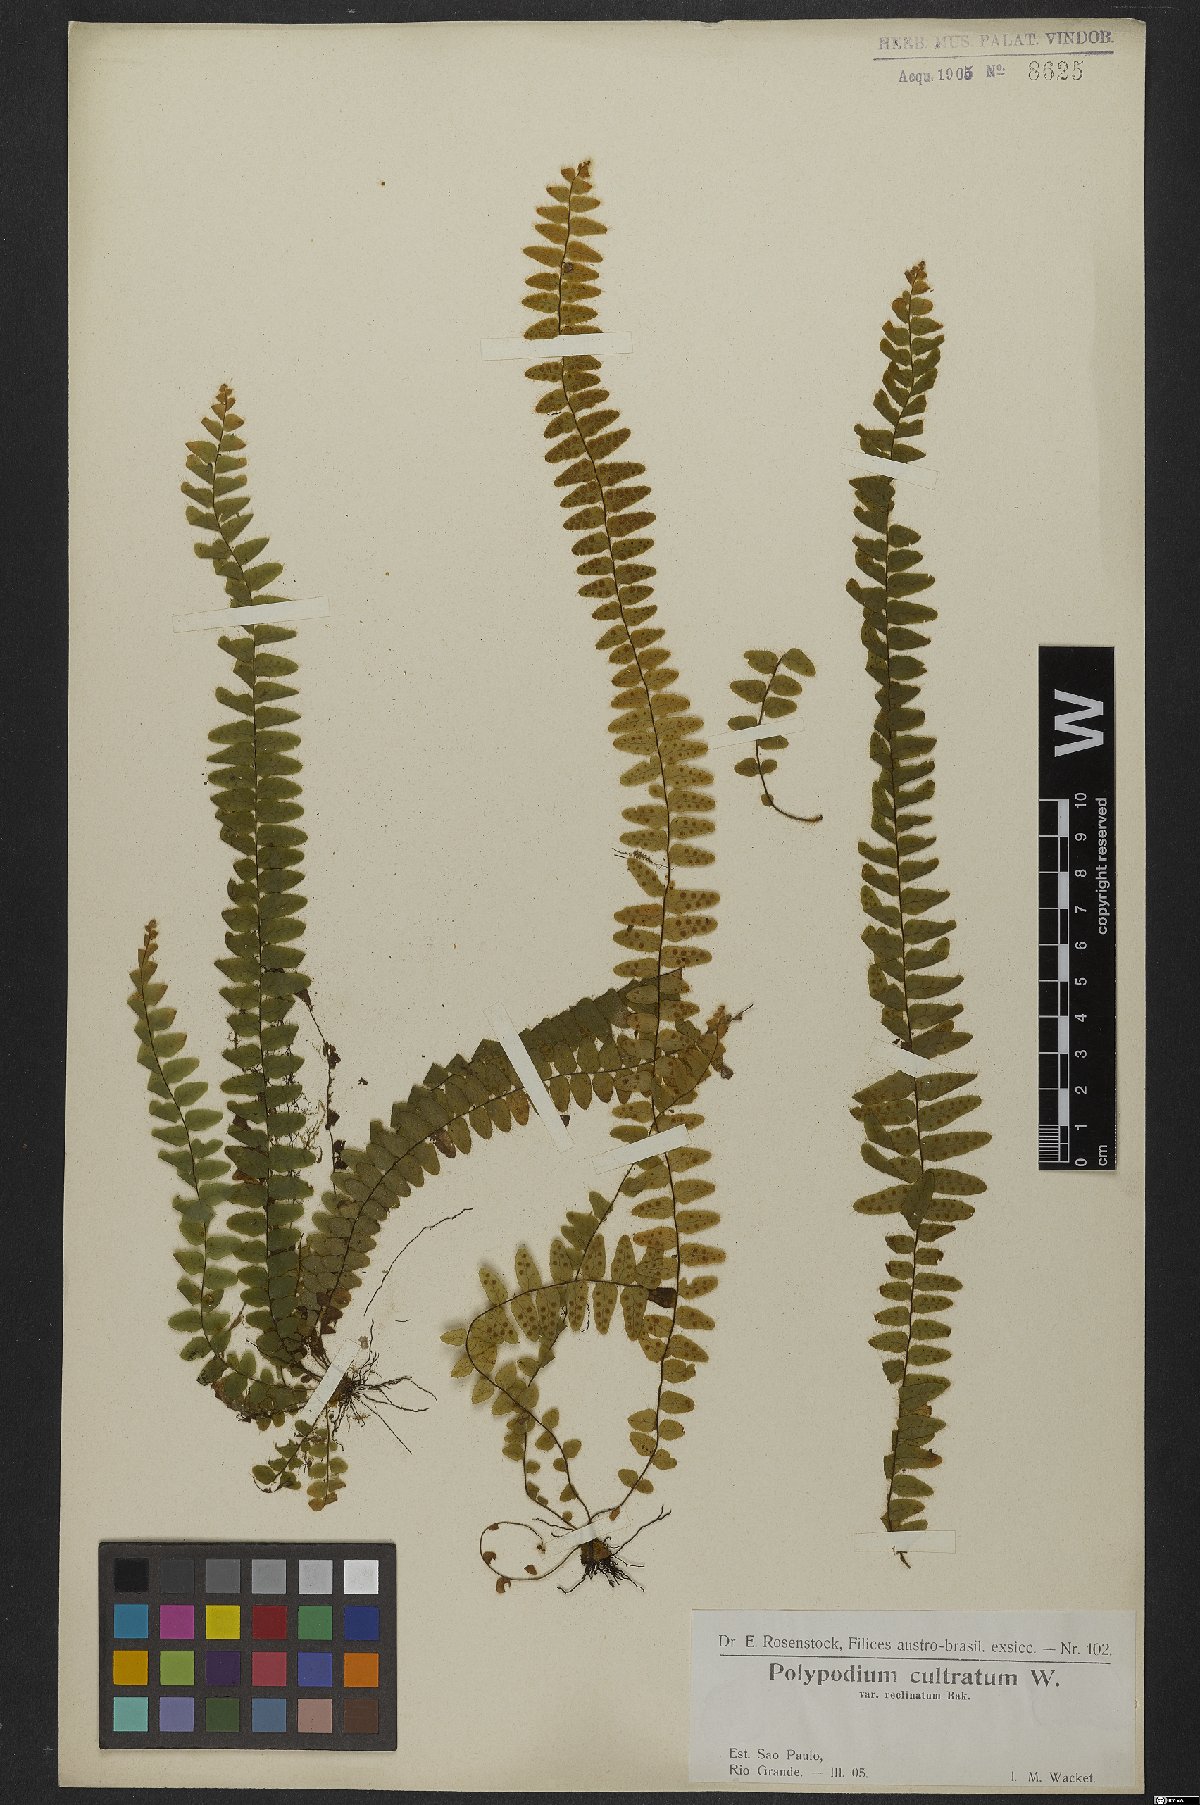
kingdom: Plantae
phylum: Tracheophyta
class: Polypodiopsida
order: Polypodiales
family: Polypodiaceae
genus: Alansmia
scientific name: Alansmia cultrata
